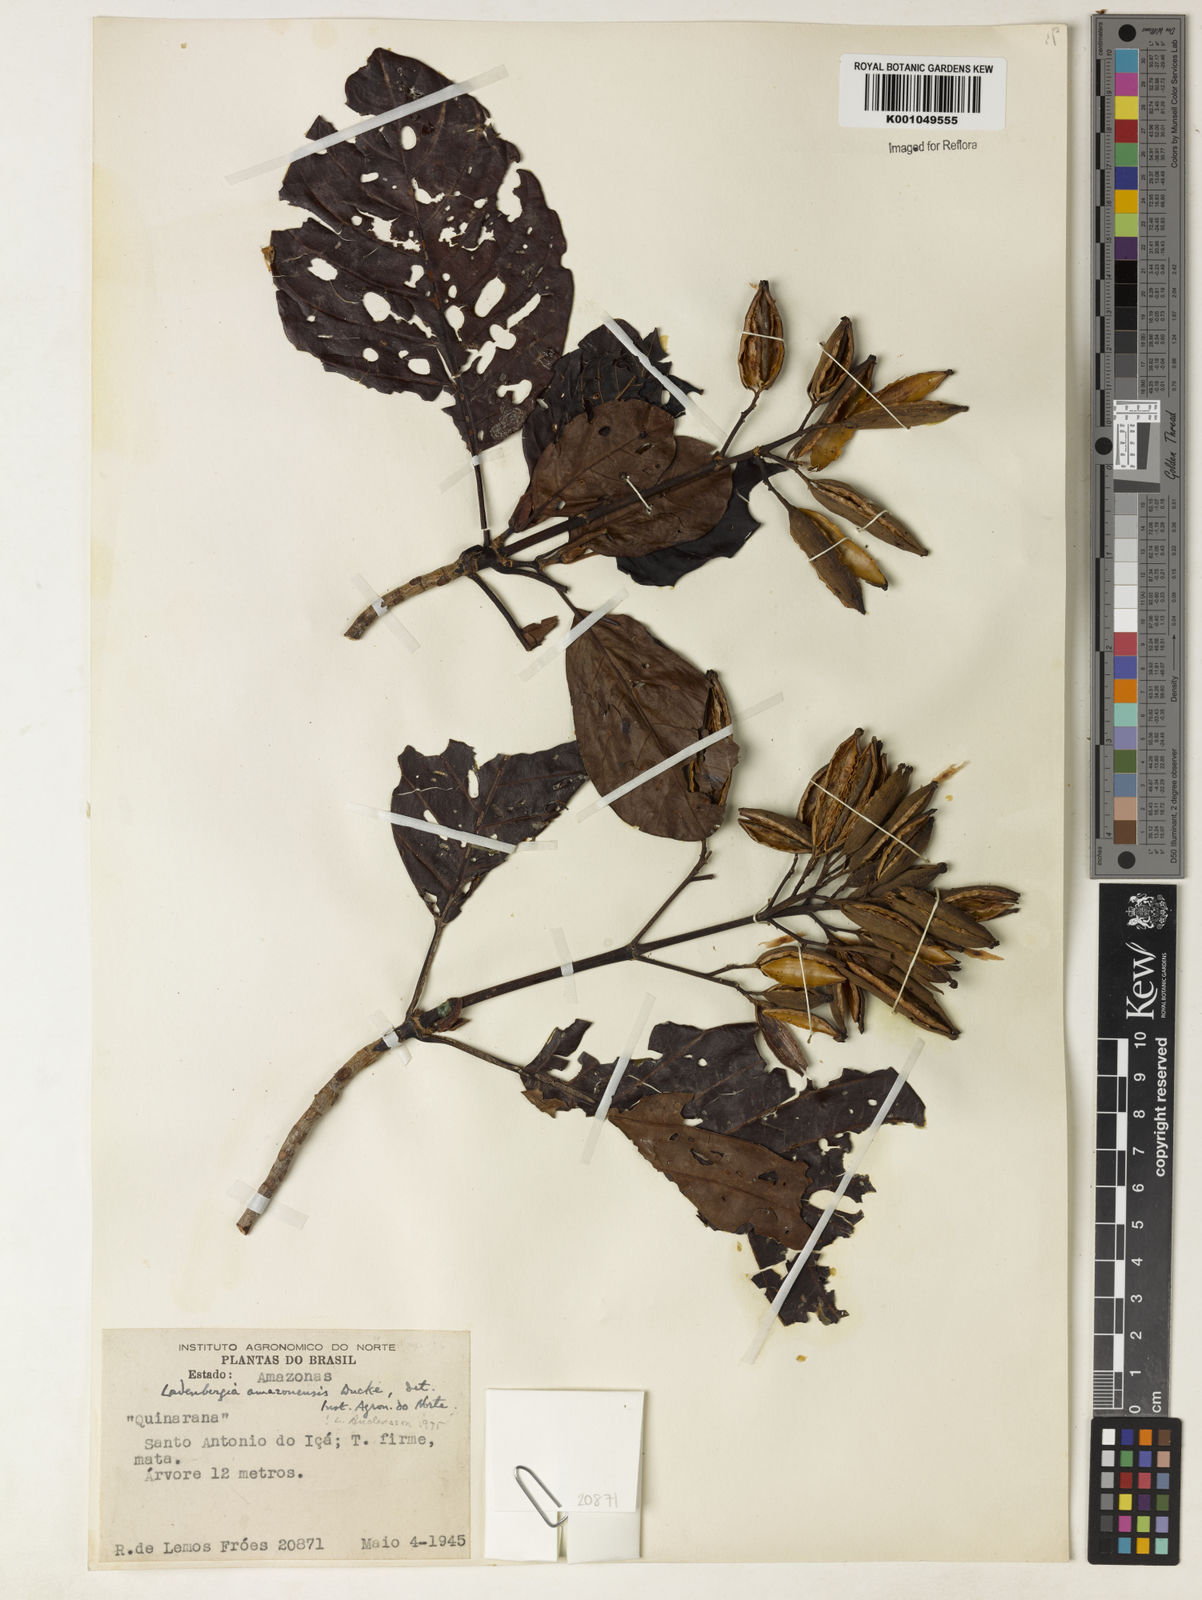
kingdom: Plantae
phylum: Tracheophyta
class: Magnoliopsida
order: Gentianales
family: Rubiaceae
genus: Ladenbergia
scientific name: Ladenbergia amazonensis
